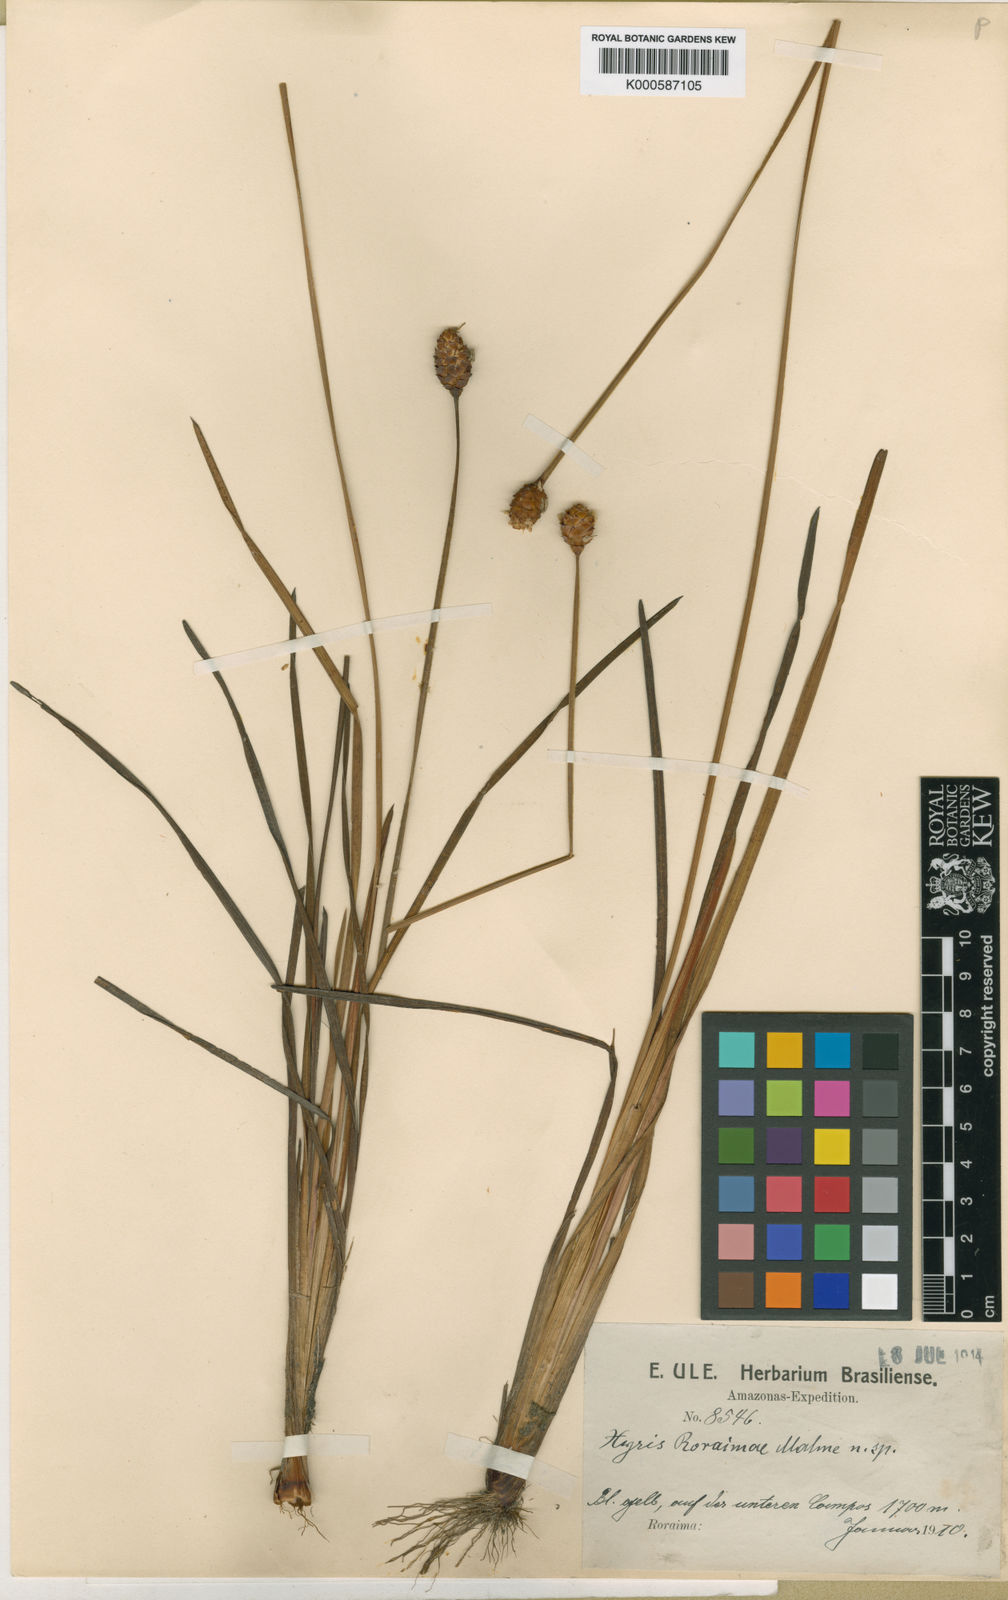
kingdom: Plantae
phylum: Tracheophyta
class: Liliopsida
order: Poales
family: Xyridaceae
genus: Xyris
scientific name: Xyris roraimae
